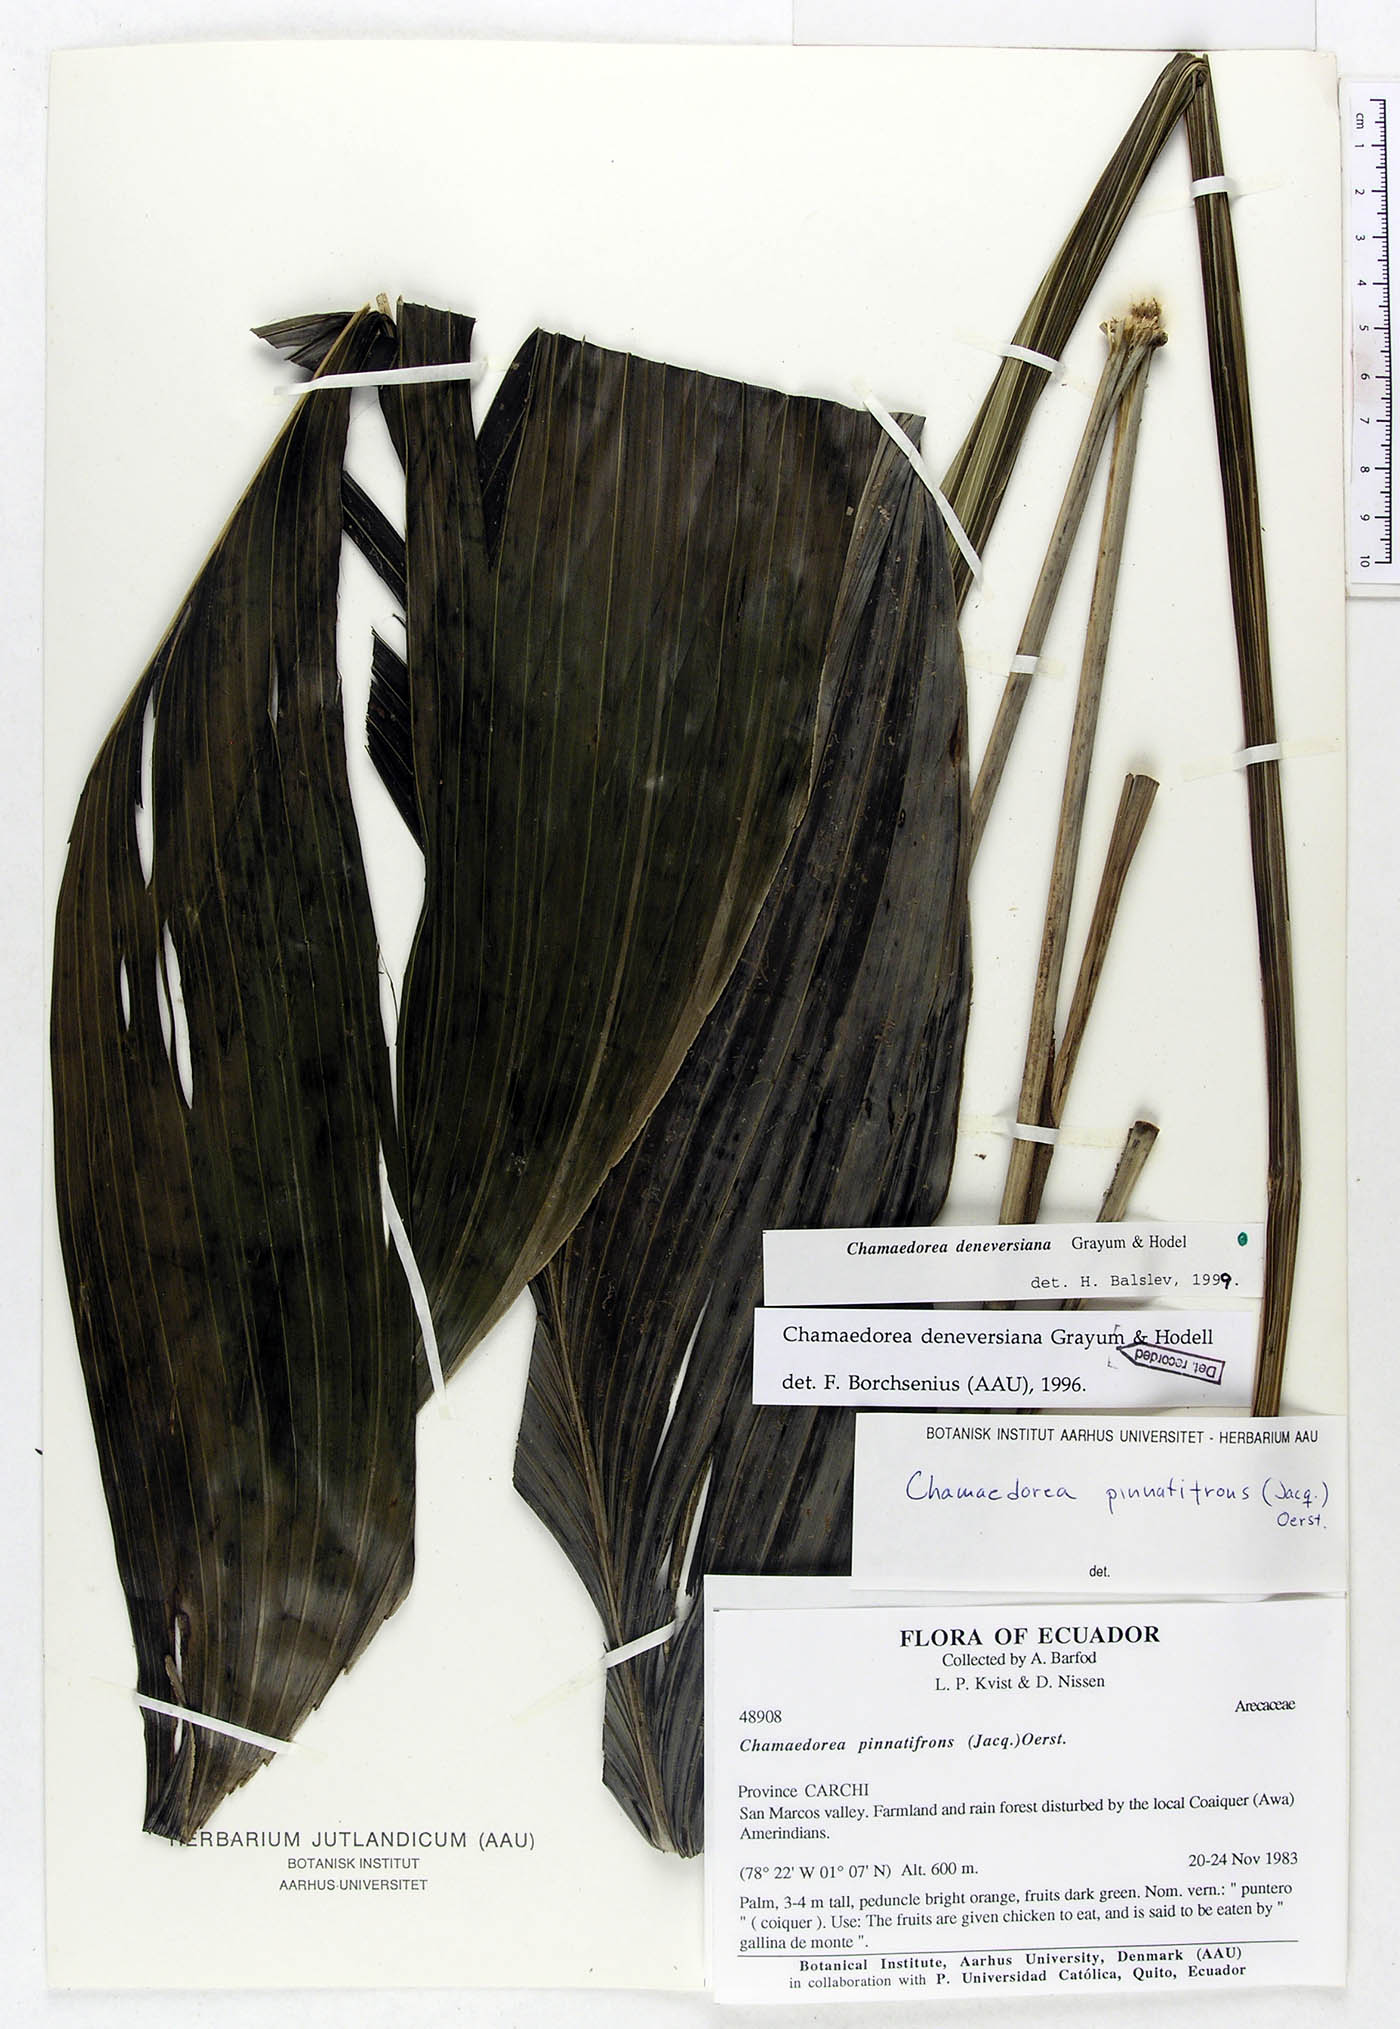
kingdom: Plantae
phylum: Tracheophyta
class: Liliopsida
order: Arecales
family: Arecaceae
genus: Chamaedorea
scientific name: Chamaedorea deneversiana
